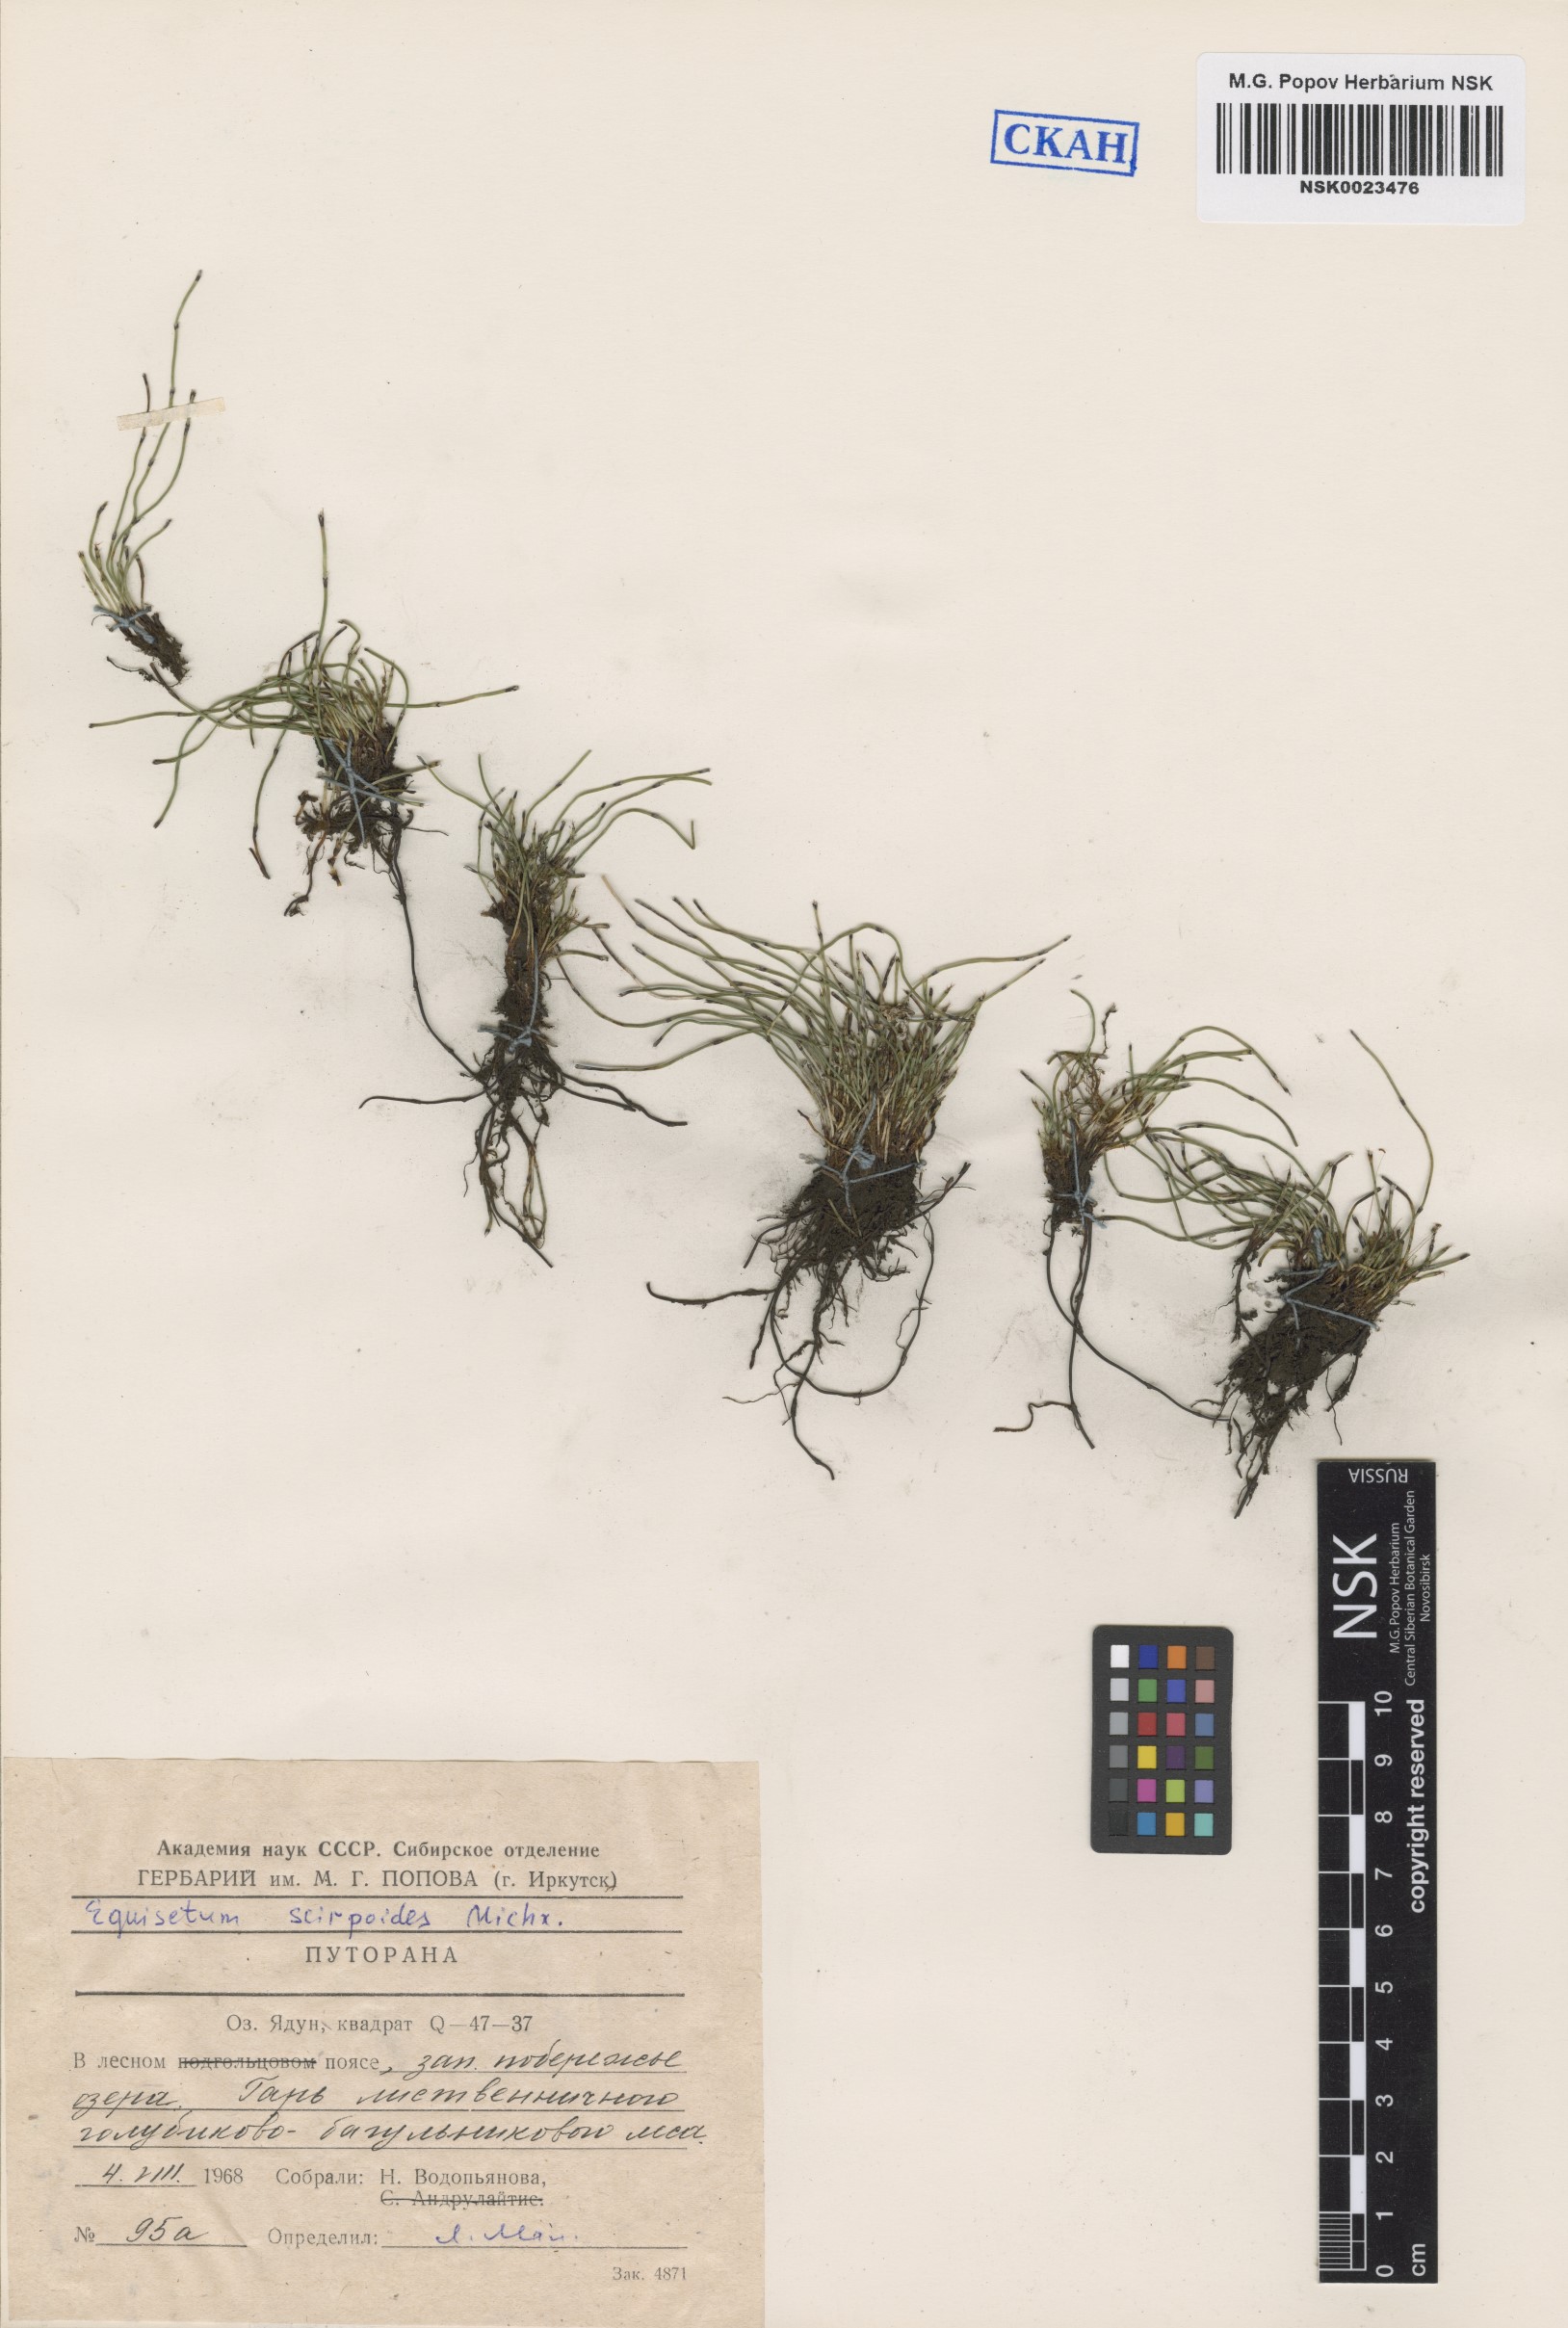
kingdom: Plantae
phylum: Tracheophyta
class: Polypodiopsida
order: Equisetales
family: Equisetaceae
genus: Equisetum
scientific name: Equisetum scirpoides
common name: Delicate horsetail
